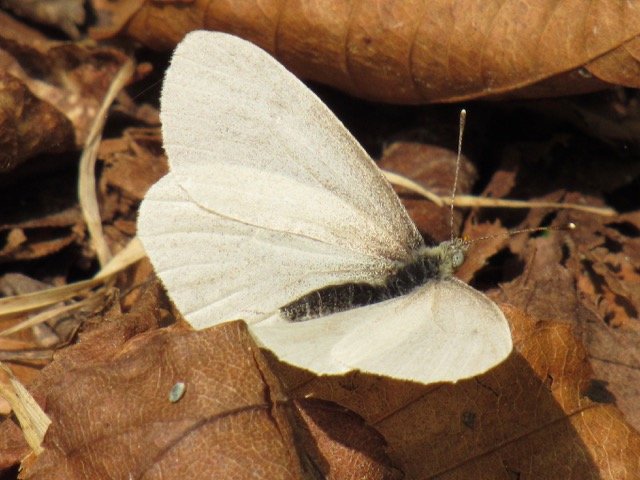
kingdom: Animalia
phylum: Arthropoda
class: Insecta
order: Lepidoptera
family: Pieridae
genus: Pieris
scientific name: Pieris virginiensis
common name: West Virginia White
